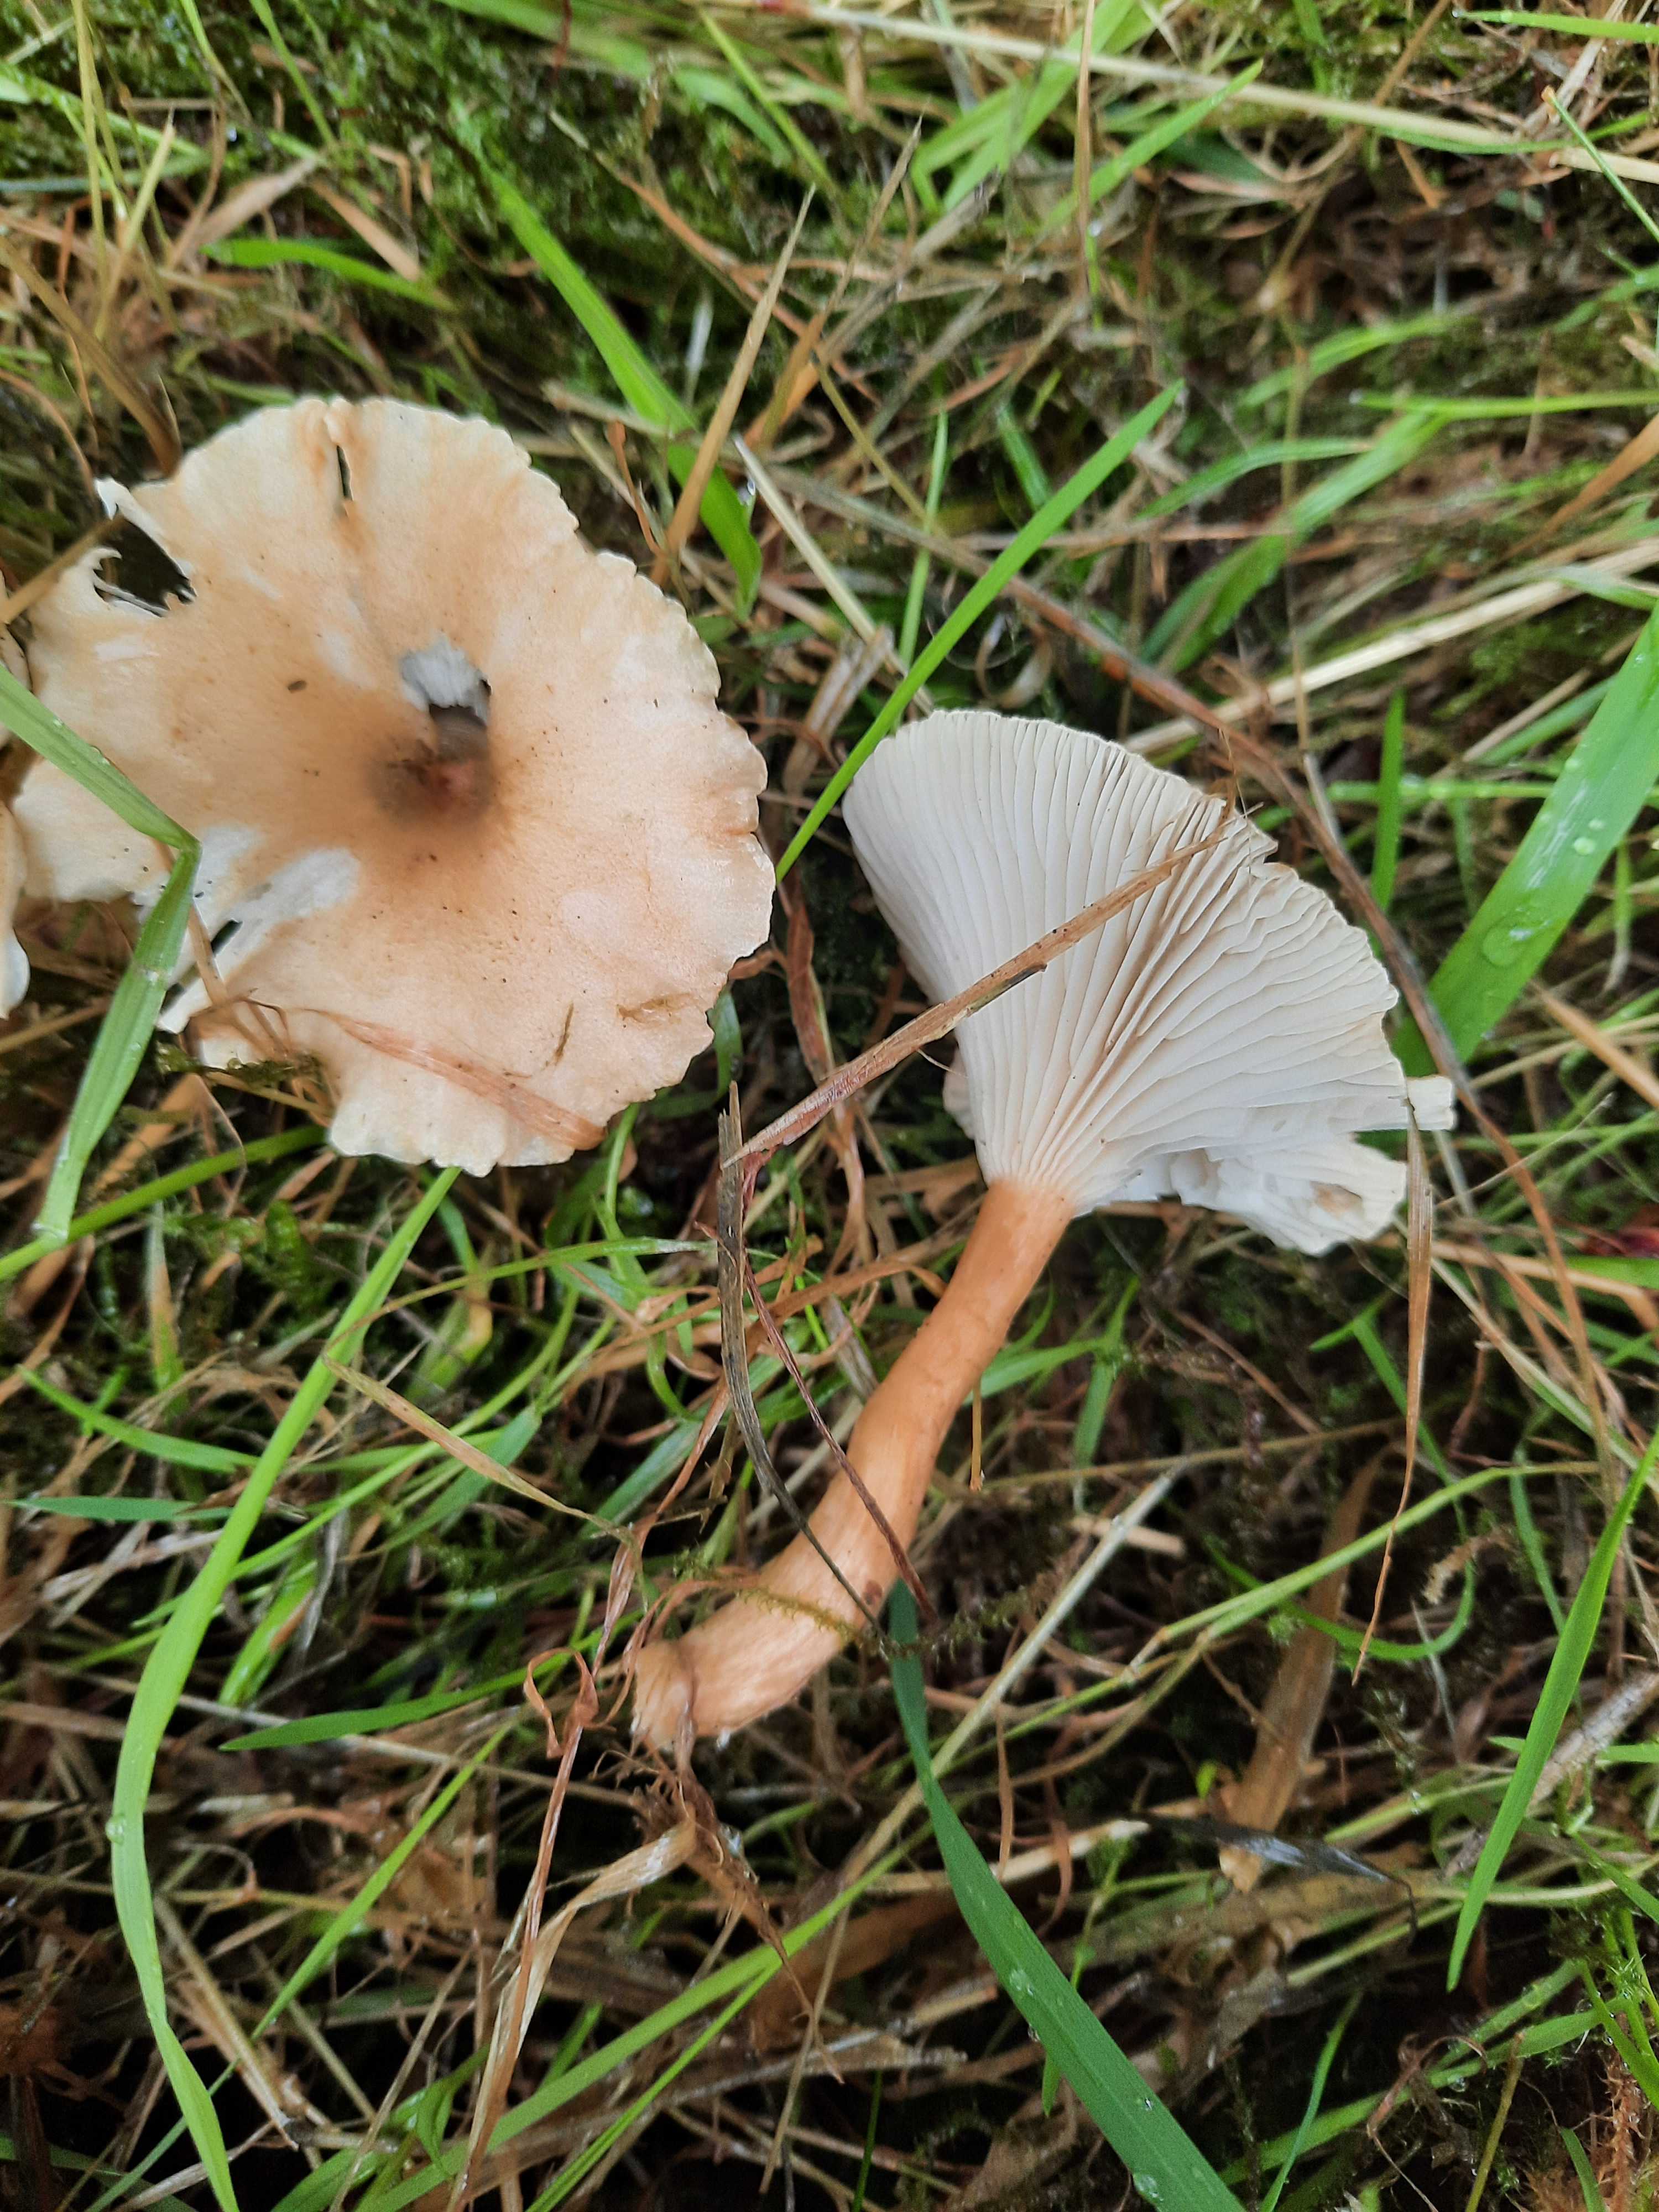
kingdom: Fungi
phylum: Basidiomycota
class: Agaricomycetes
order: Agaricales
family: Tricholomataceae
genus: Infundibulicybe
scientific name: Infundibulicybe gibba
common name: almindelig tragthat
